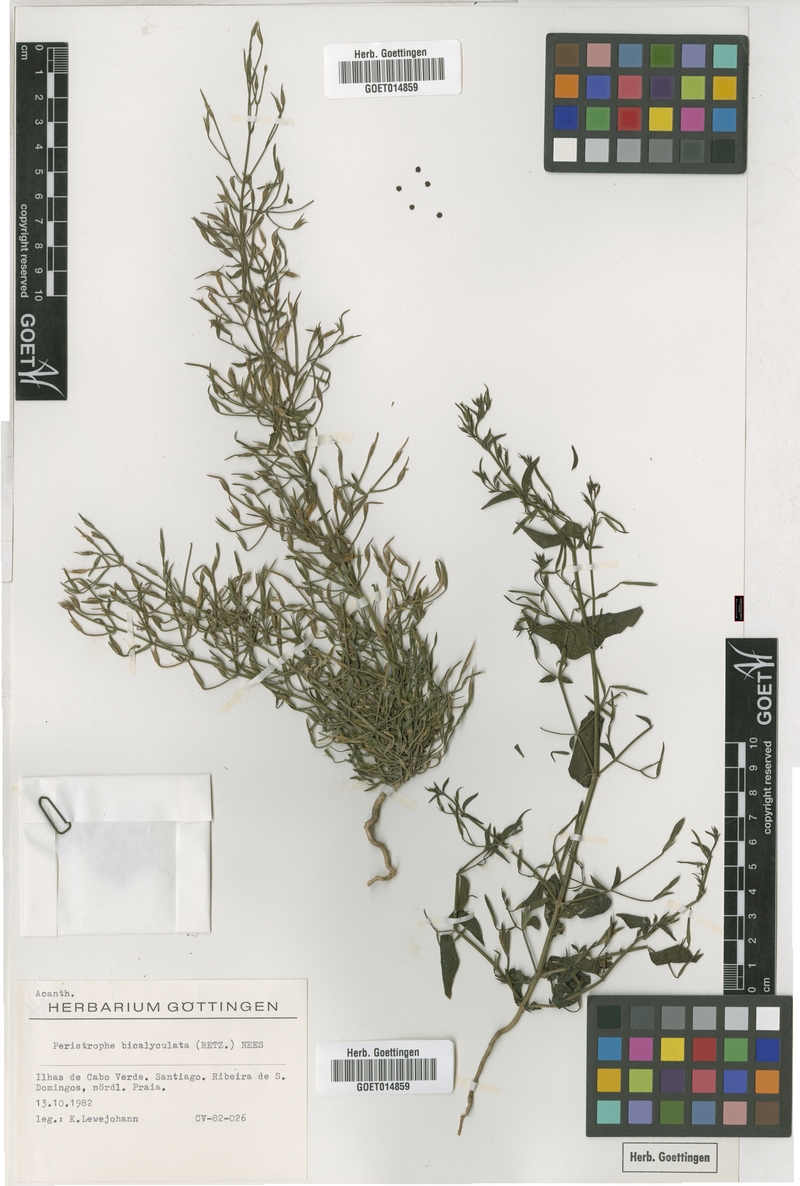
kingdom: Plantae
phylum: Tracheophyta
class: Magnoliopsida
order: Lamiales
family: Acanthaceae
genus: Dicliptera
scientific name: Dicliptera paniculata
